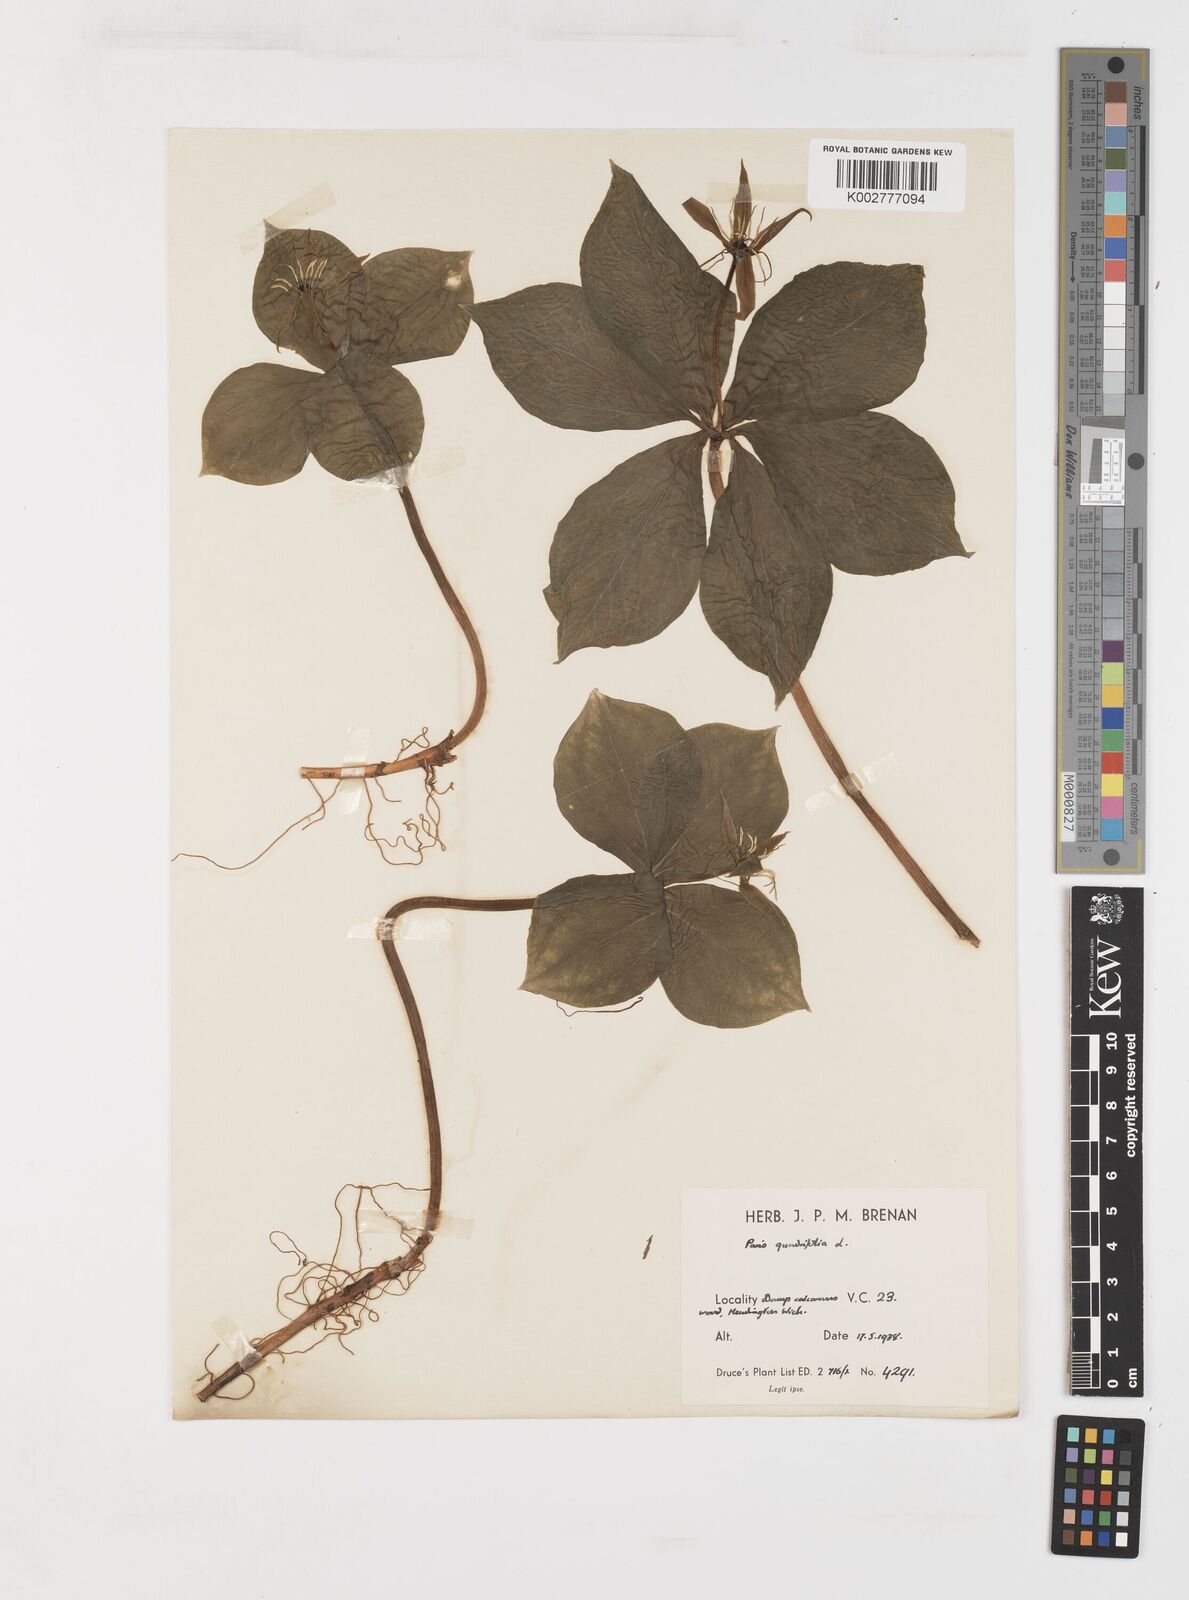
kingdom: Plantae
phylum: Tracheophyta
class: Liliopsida
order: Liliales
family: Melanthiaceae
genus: Paris
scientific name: Paris quadrifolia
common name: Herb-paris
